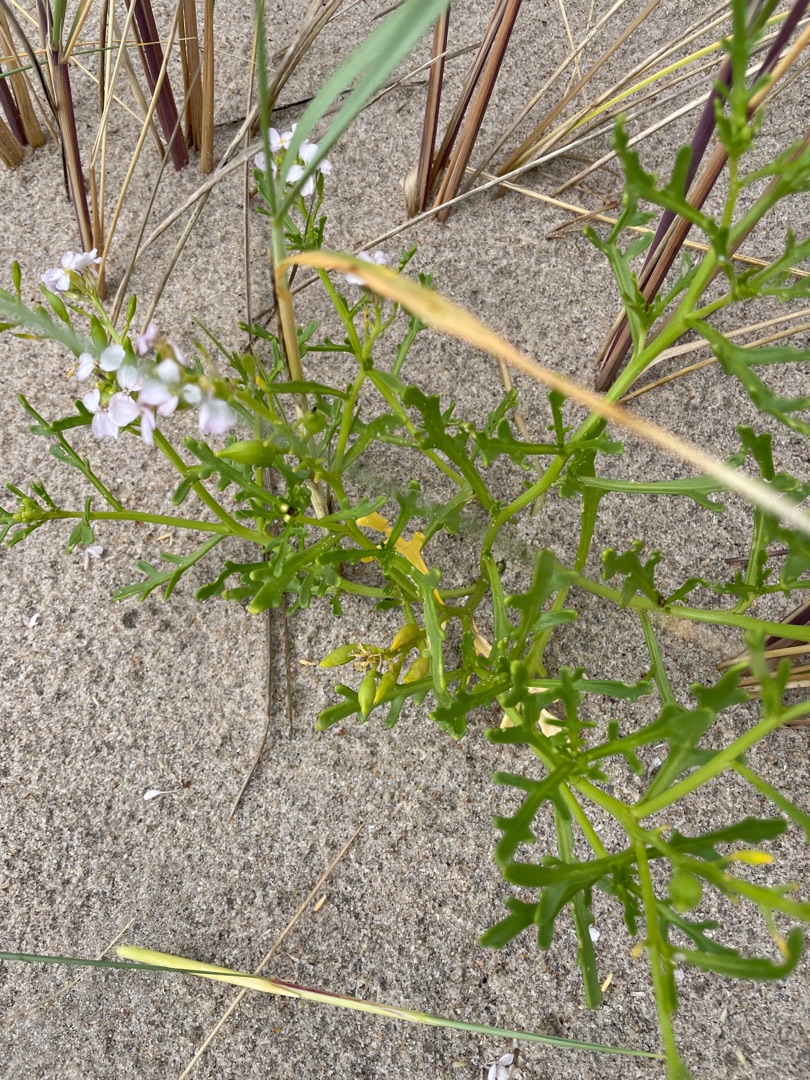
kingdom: Plantae
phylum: Tracheophyta
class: Magnoliopsida
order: Brassicales
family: Brassicaceae
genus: Cakile
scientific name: Cakile maritima
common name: Strandsennep
